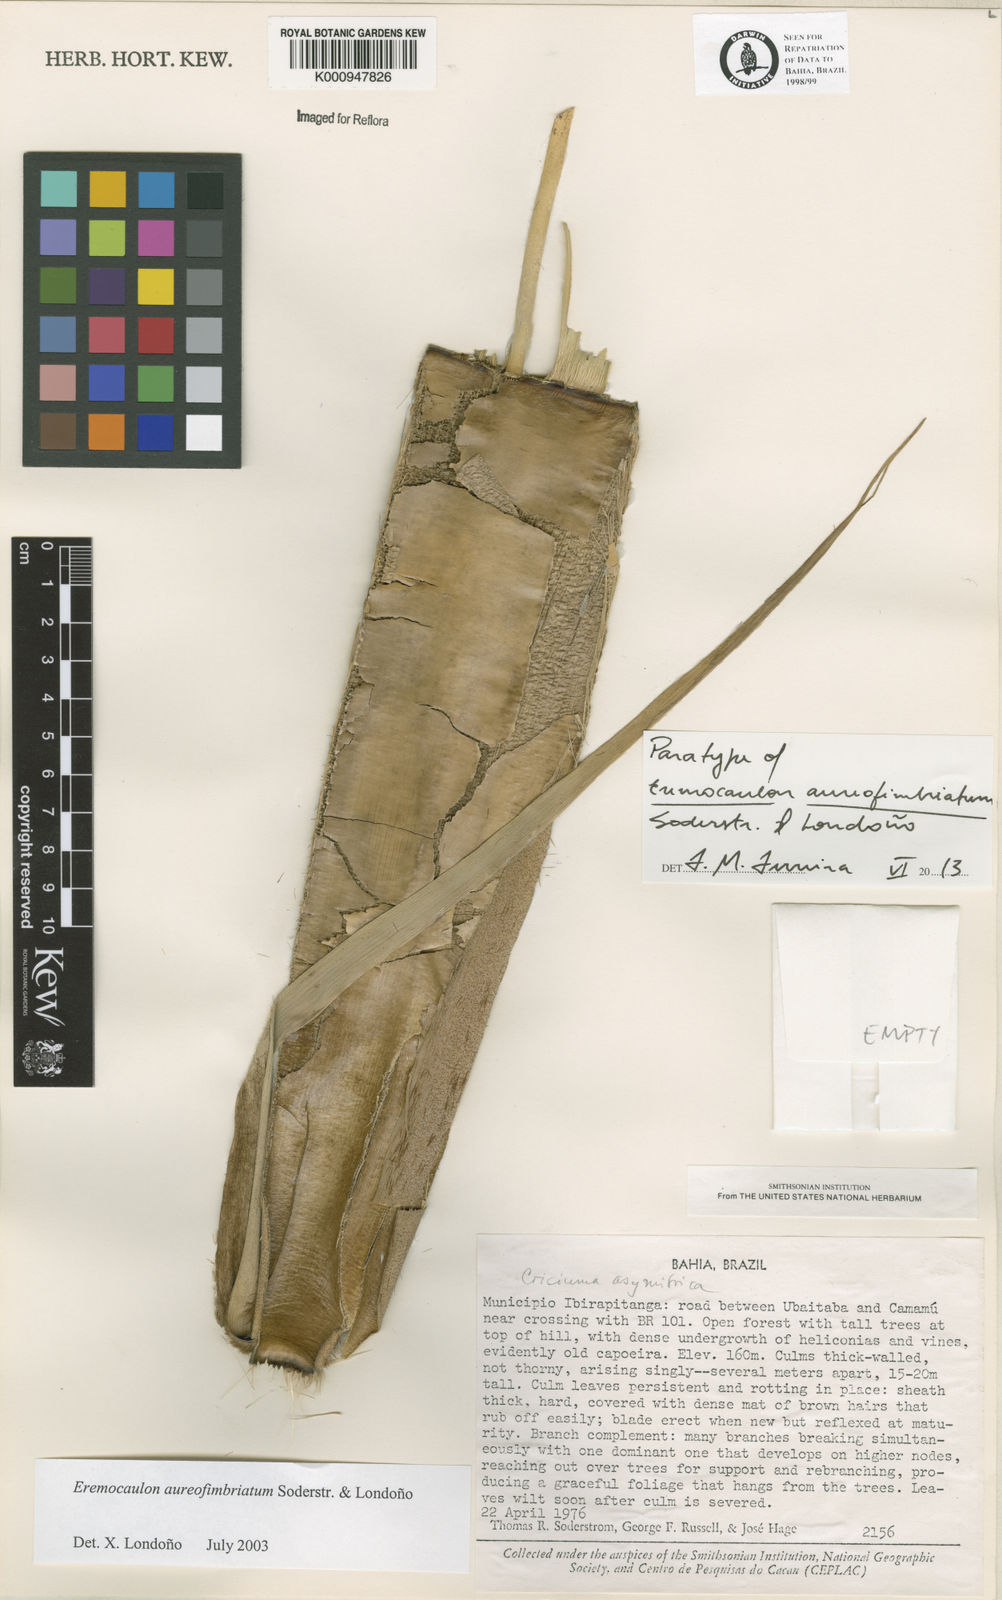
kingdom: Plantae
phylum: Tracheophyta
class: Liliopsida
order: Poales
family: Poaceae
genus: Eremocaulon
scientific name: Eremocaulon
